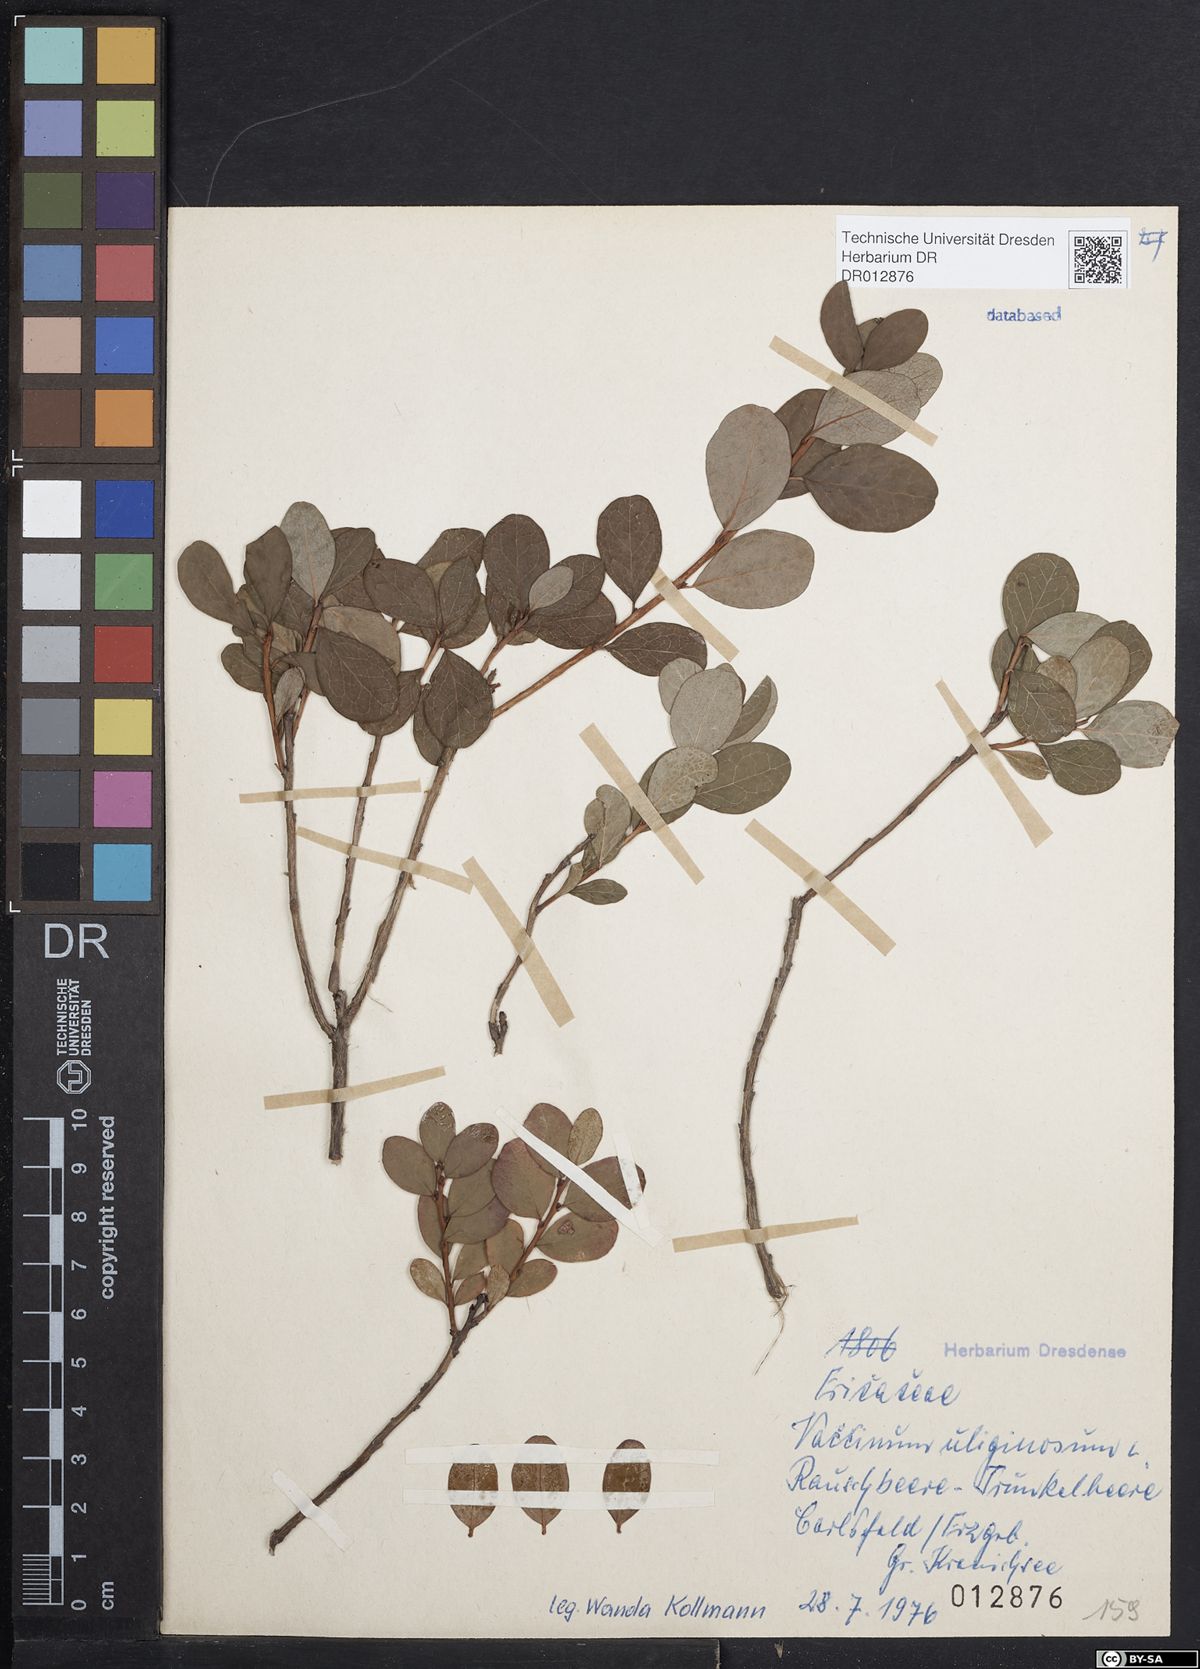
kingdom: Plantae
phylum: Tracheophyta
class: Magnoliopsida
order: Ericales
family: Ericaceae
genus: Vaccinium
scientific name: Vaccinium uliginosum
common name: Bog bilberry
